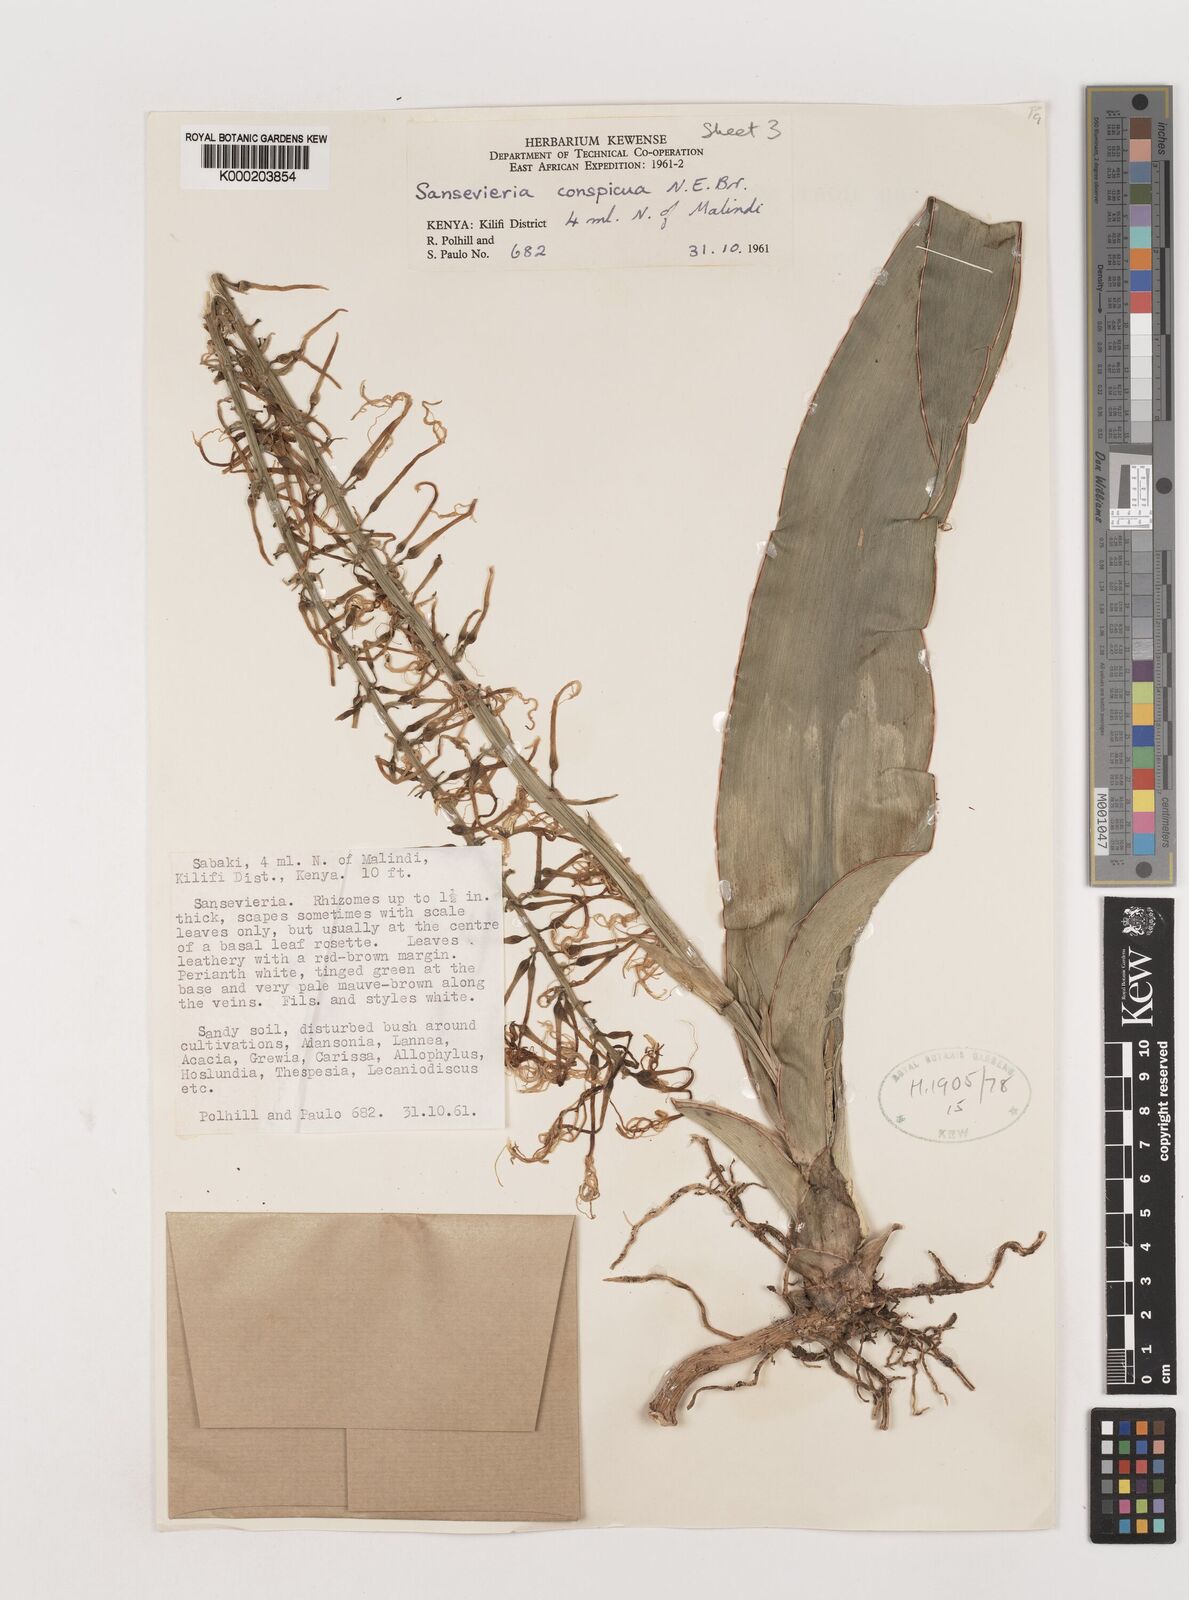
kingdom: Plantae
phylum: Tracheophyta
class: Liliopsida
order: Asparagales
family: Asparagaceae
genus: Dracaena
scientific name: Dracaena conspicua
